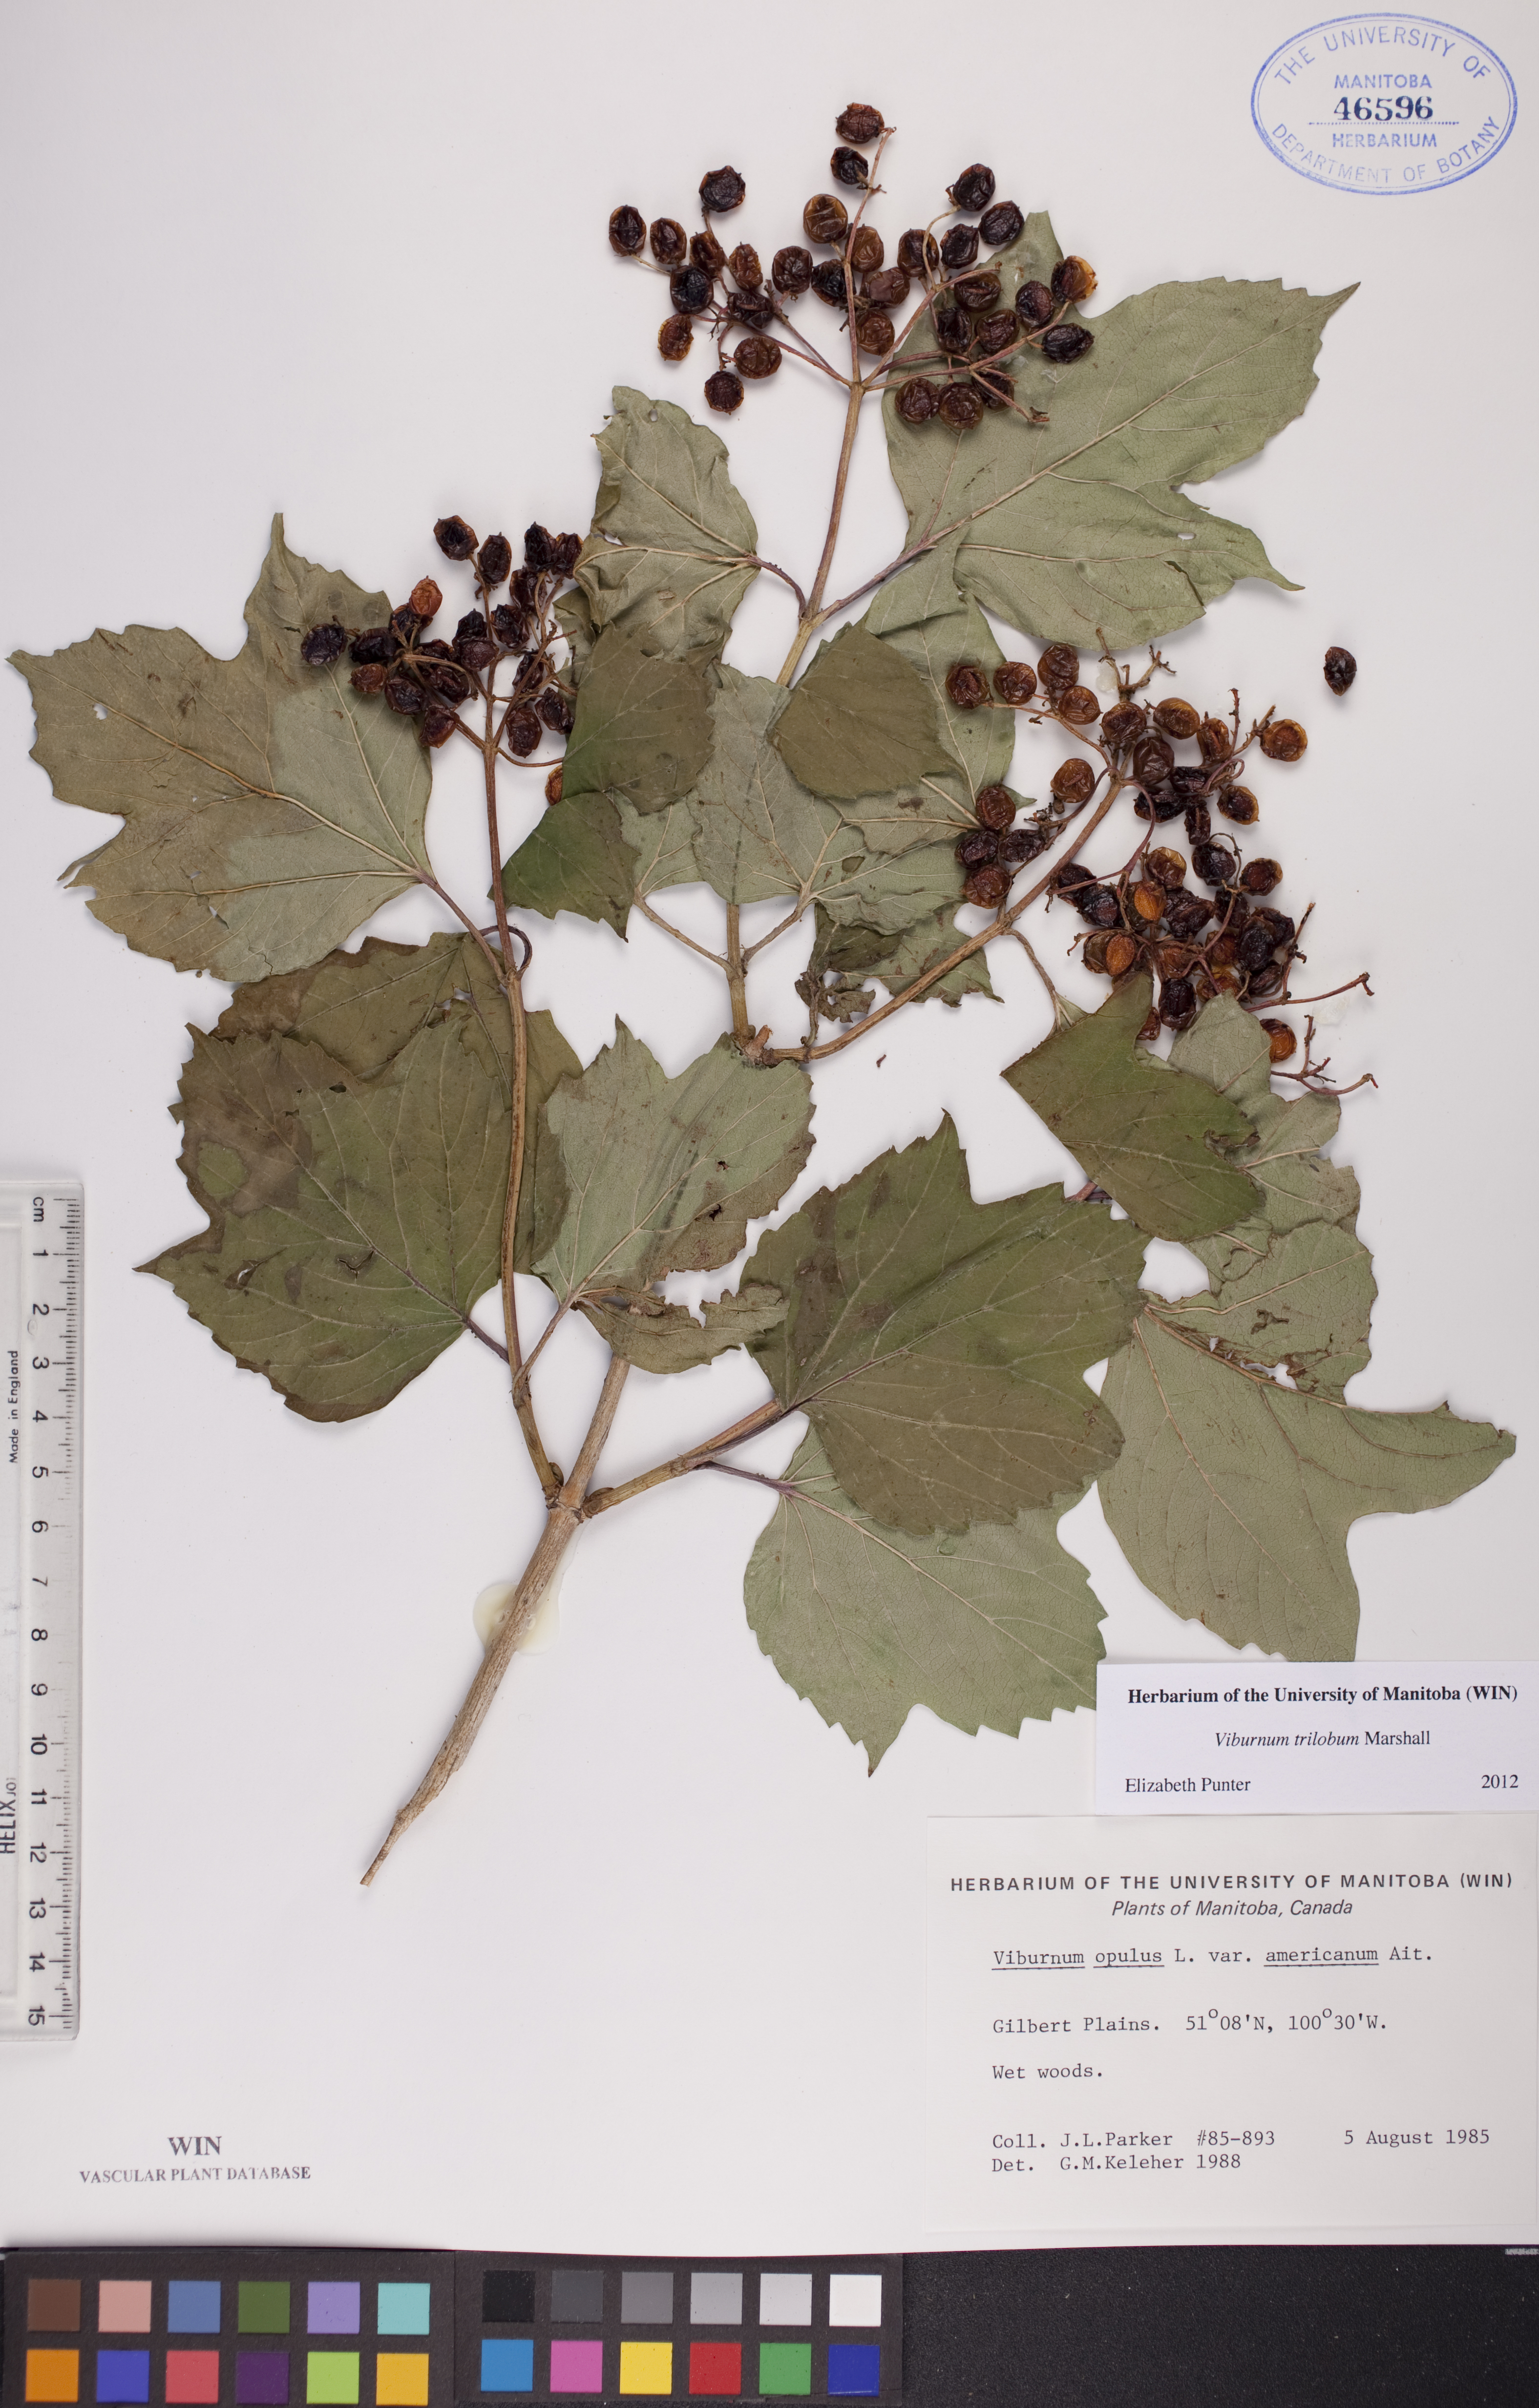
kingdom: Plantae
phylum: Tracheophyta
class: Magnoliopsida
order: Dipsacales
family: Viburnaceae
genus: Viburnum
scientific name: Viburnum trilobum
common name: American cranberrybush
